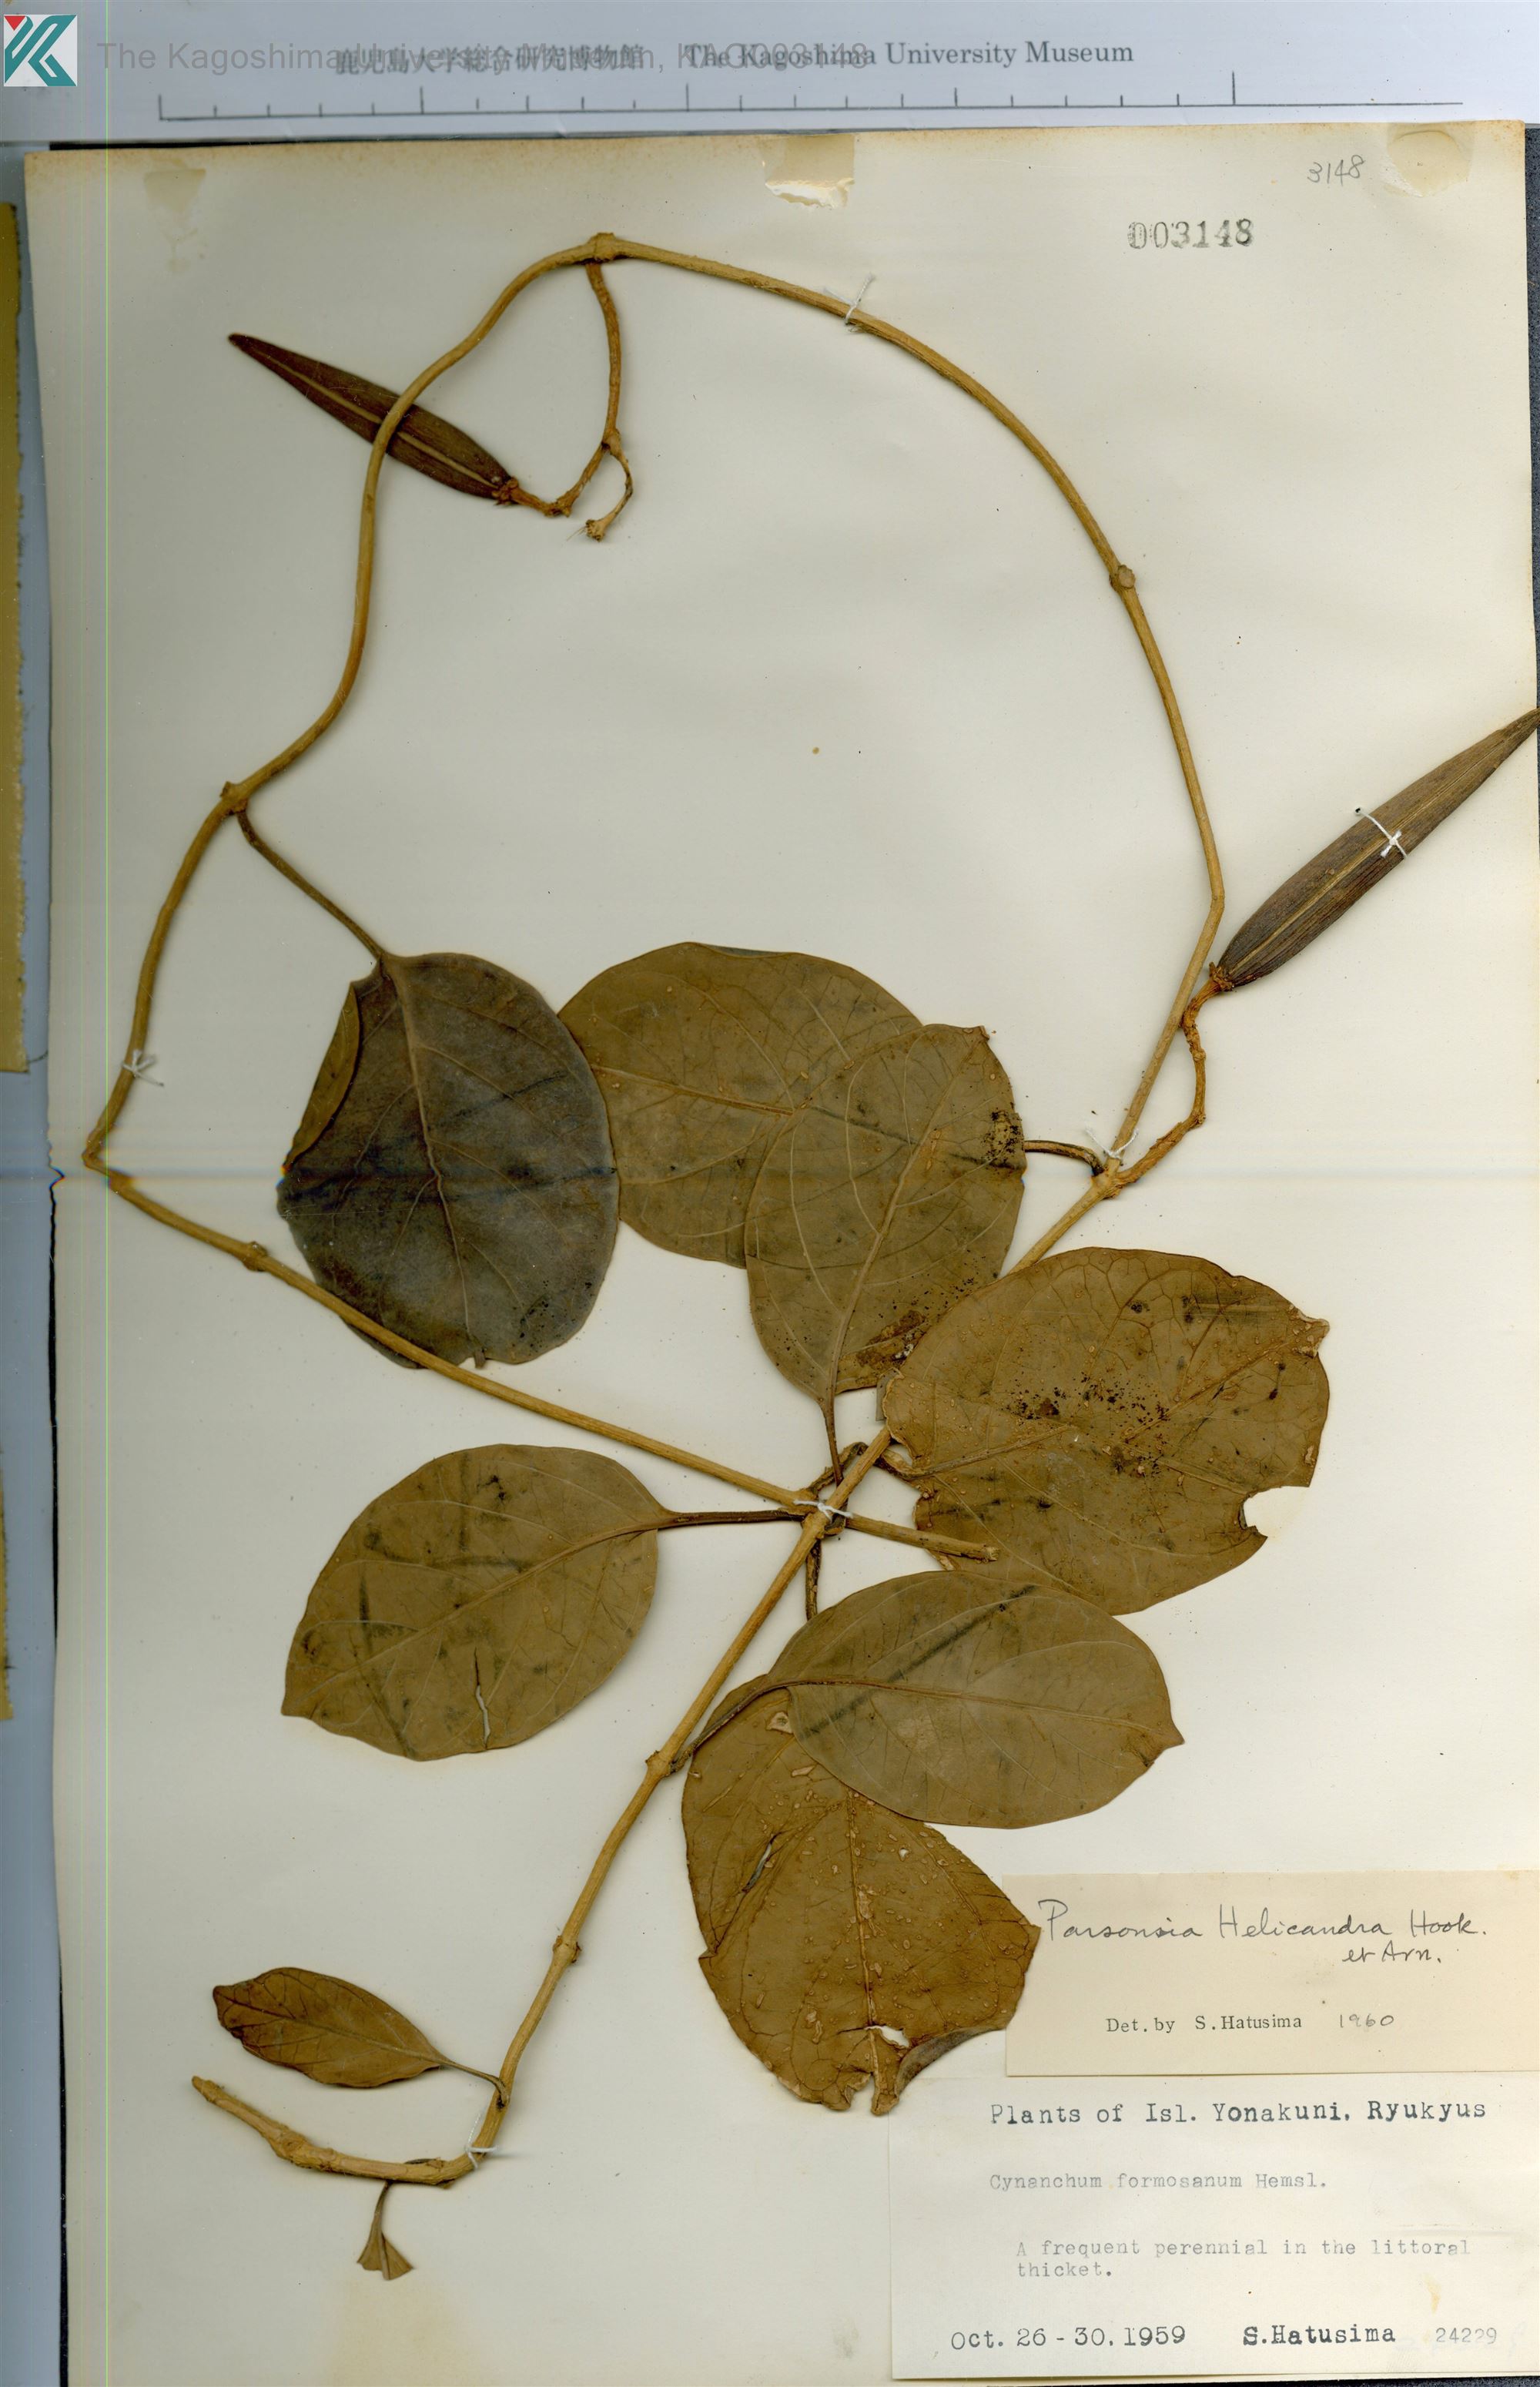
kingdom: Plantae
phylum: Tracheophyta
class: Magnoliopsida
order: Gentianales
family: Apocynaceae
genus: Parsonsia
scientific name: Parsonsia alboflavescens
